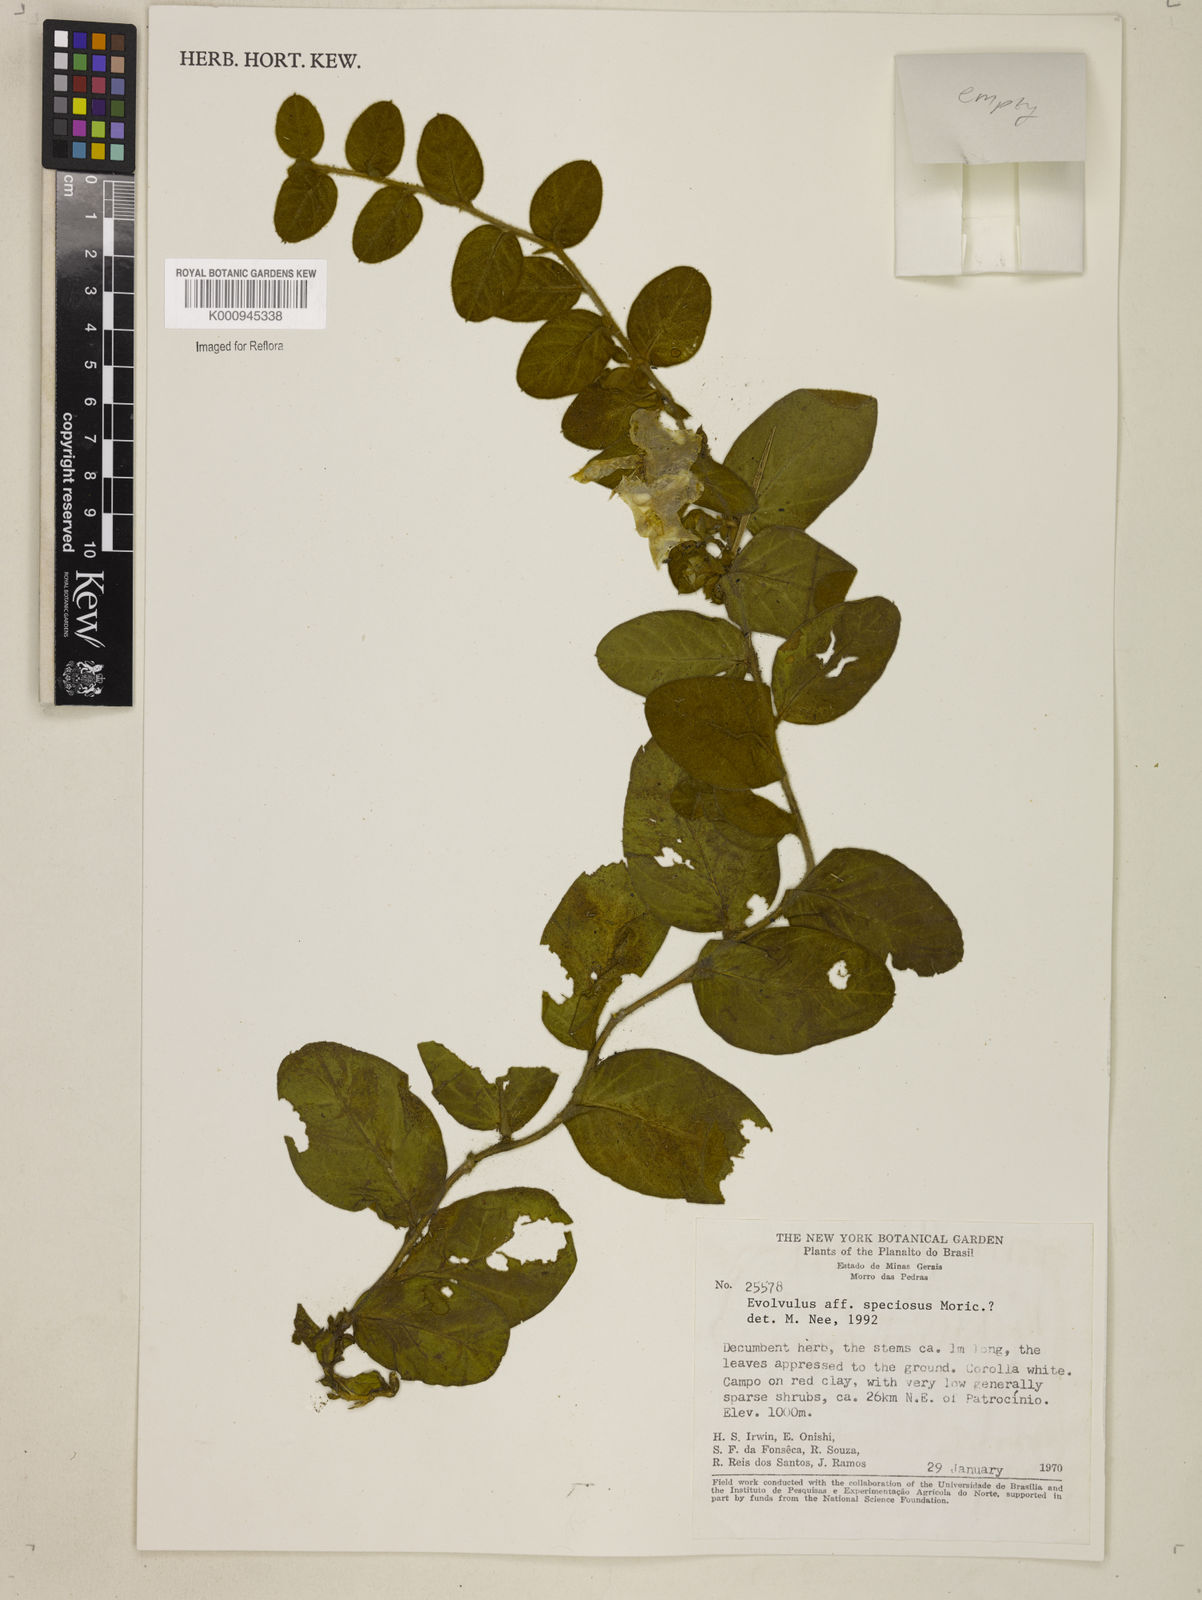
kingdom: Plantae
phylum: Tracheophyta
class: Magnoliopsida
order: Solanales
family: Convolvulaceae
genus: Jacquemontia
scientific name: Jacquemontia
